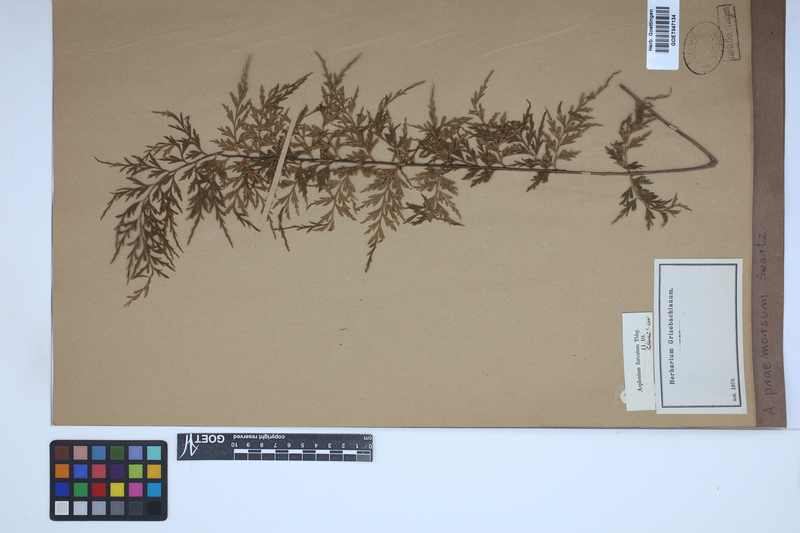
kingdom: Plantae
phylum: Tracheophyta
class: Polypodiopsida
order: Polypodiales
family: Aspleniaceae
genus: Asplenium
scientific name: Asplenium praemorsum
